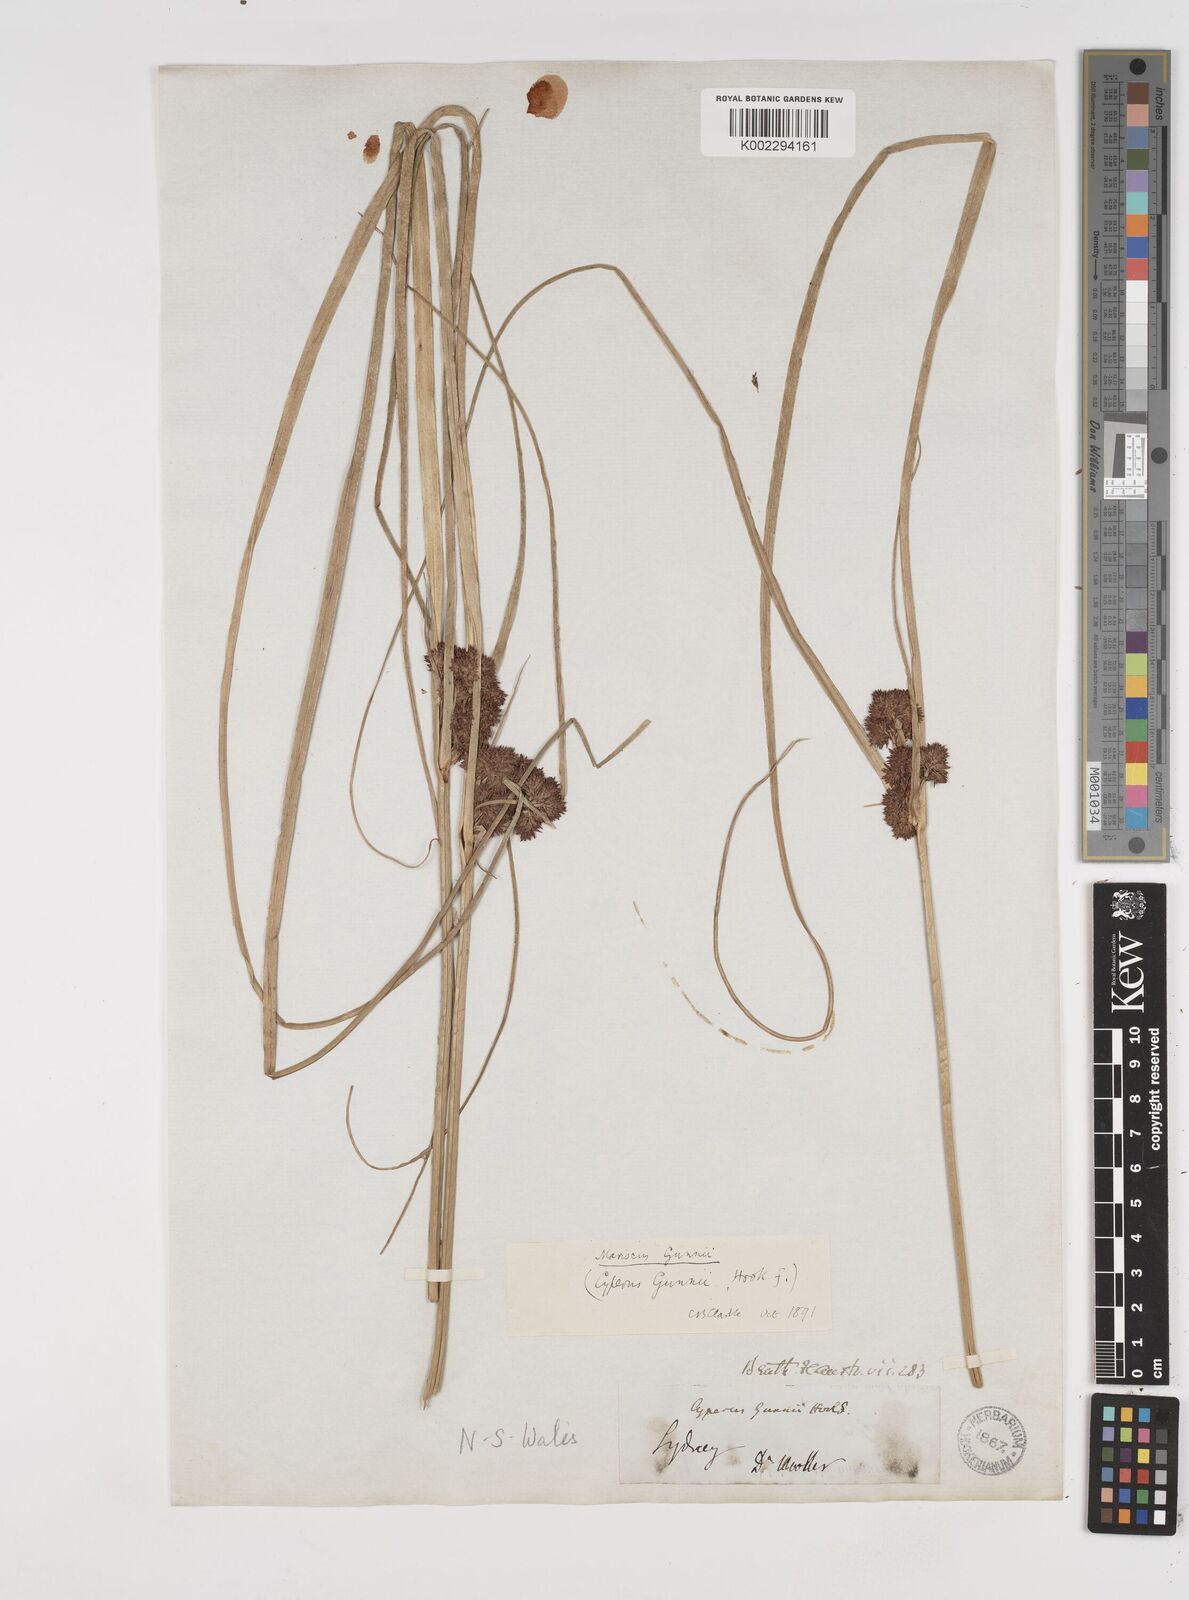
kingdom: Plantae
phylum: Tracheophyta
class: Liliopsida
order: Poales
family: Cyperaceae
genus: Cyperus
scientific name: Cyperus gunnii
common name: Flecked flat-sedge
